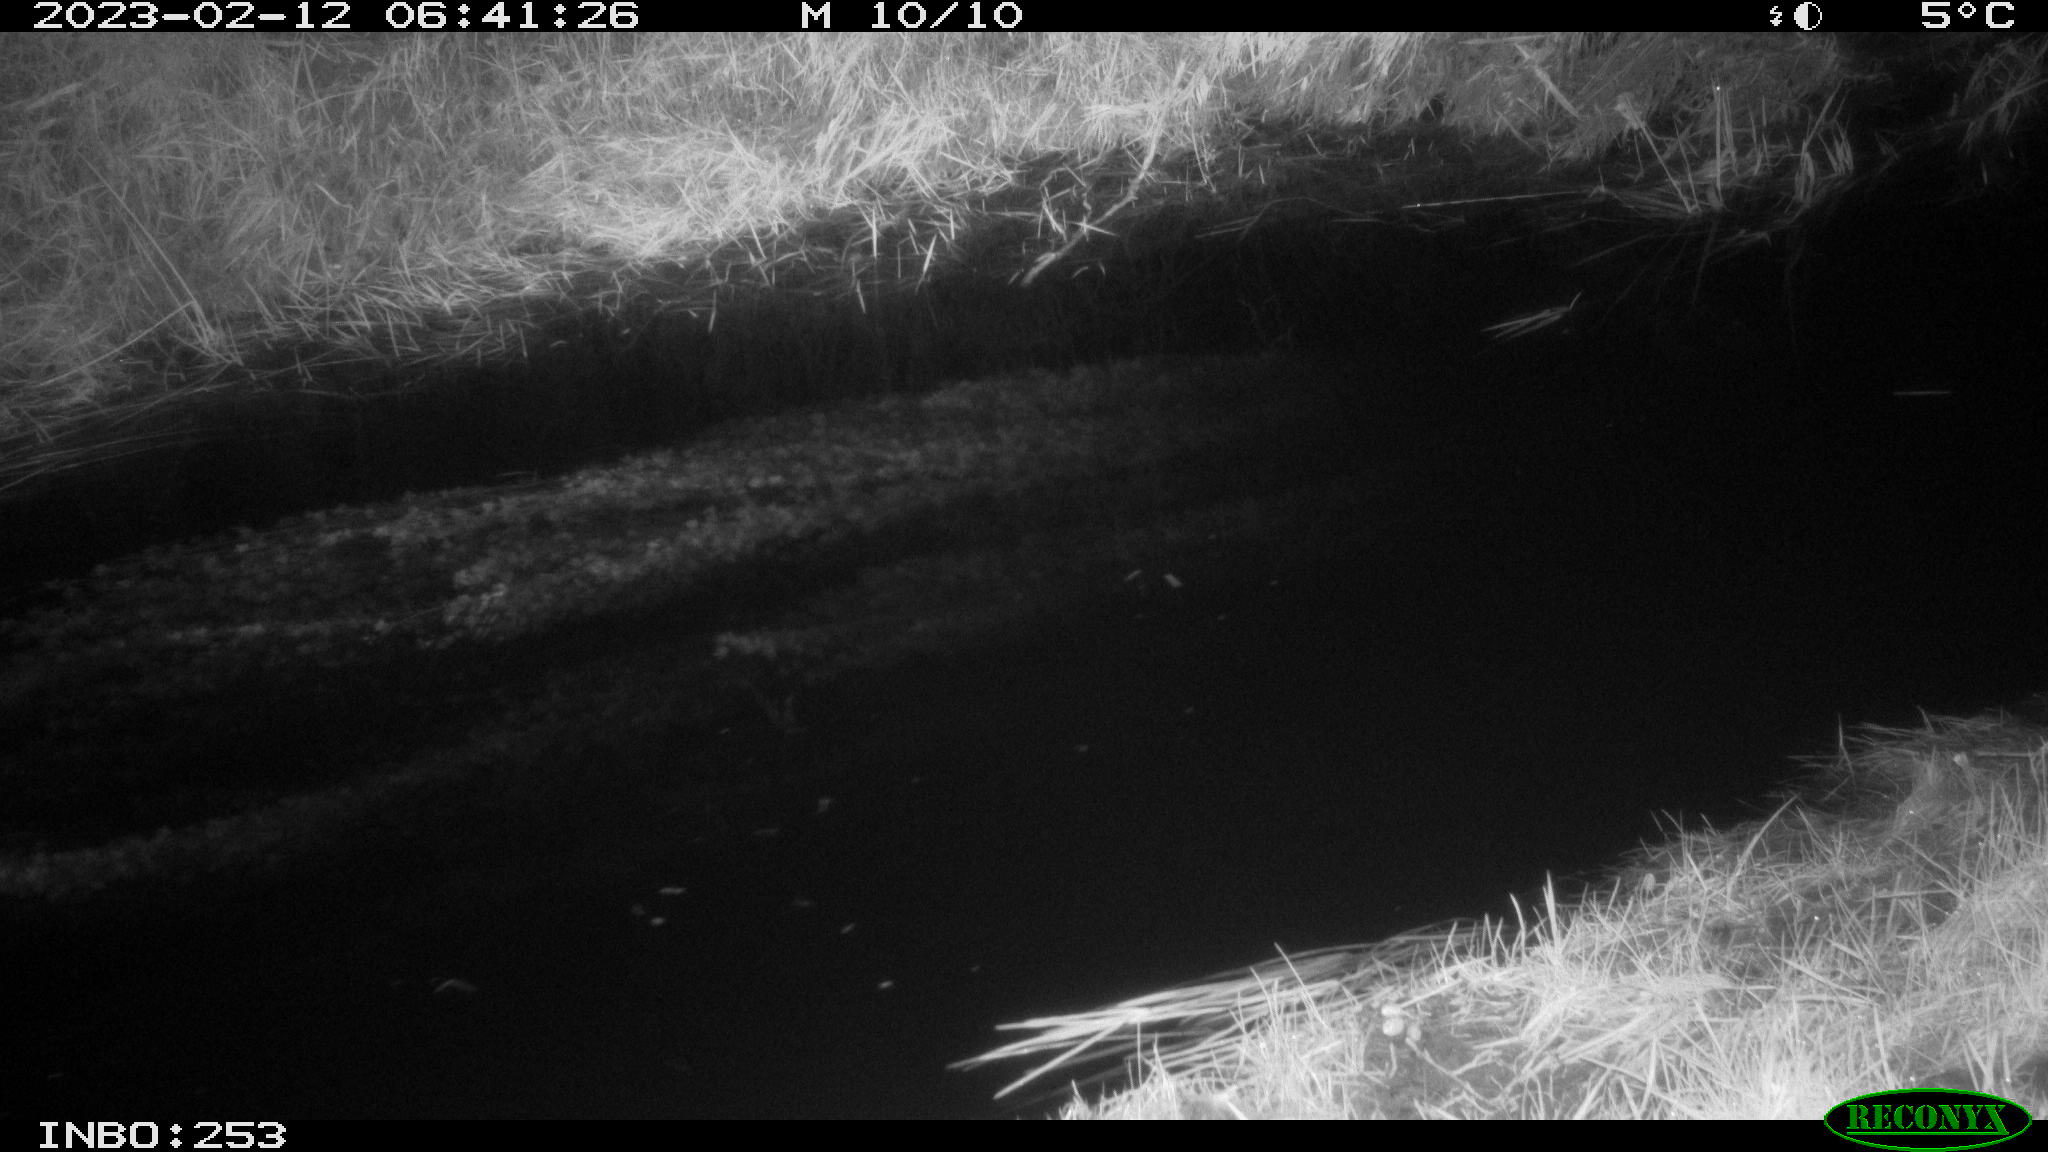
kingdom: Animalia
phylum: Chordata
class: Aves
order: Anseriformes
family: Anatidae
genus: Anas
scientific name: Anas
